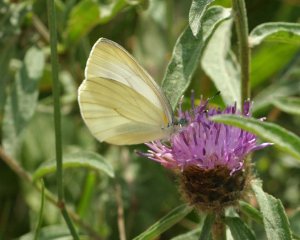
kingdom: Animalia
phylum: Arthropoda
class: Insecta
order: Lepidoptera
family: Pieridae
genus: Pieris
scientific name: Pieris oleracea
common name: Mustard White
